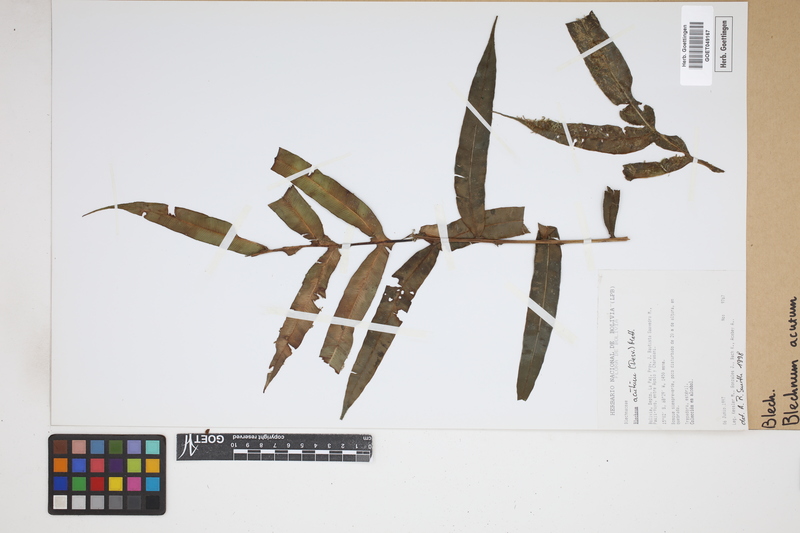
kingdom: Plantae
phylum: Tracheophyta
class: Polypodiopsida
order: Polypodiales
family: Blechnaceae
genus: Lomaridium
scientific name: Lomaridium acutum
